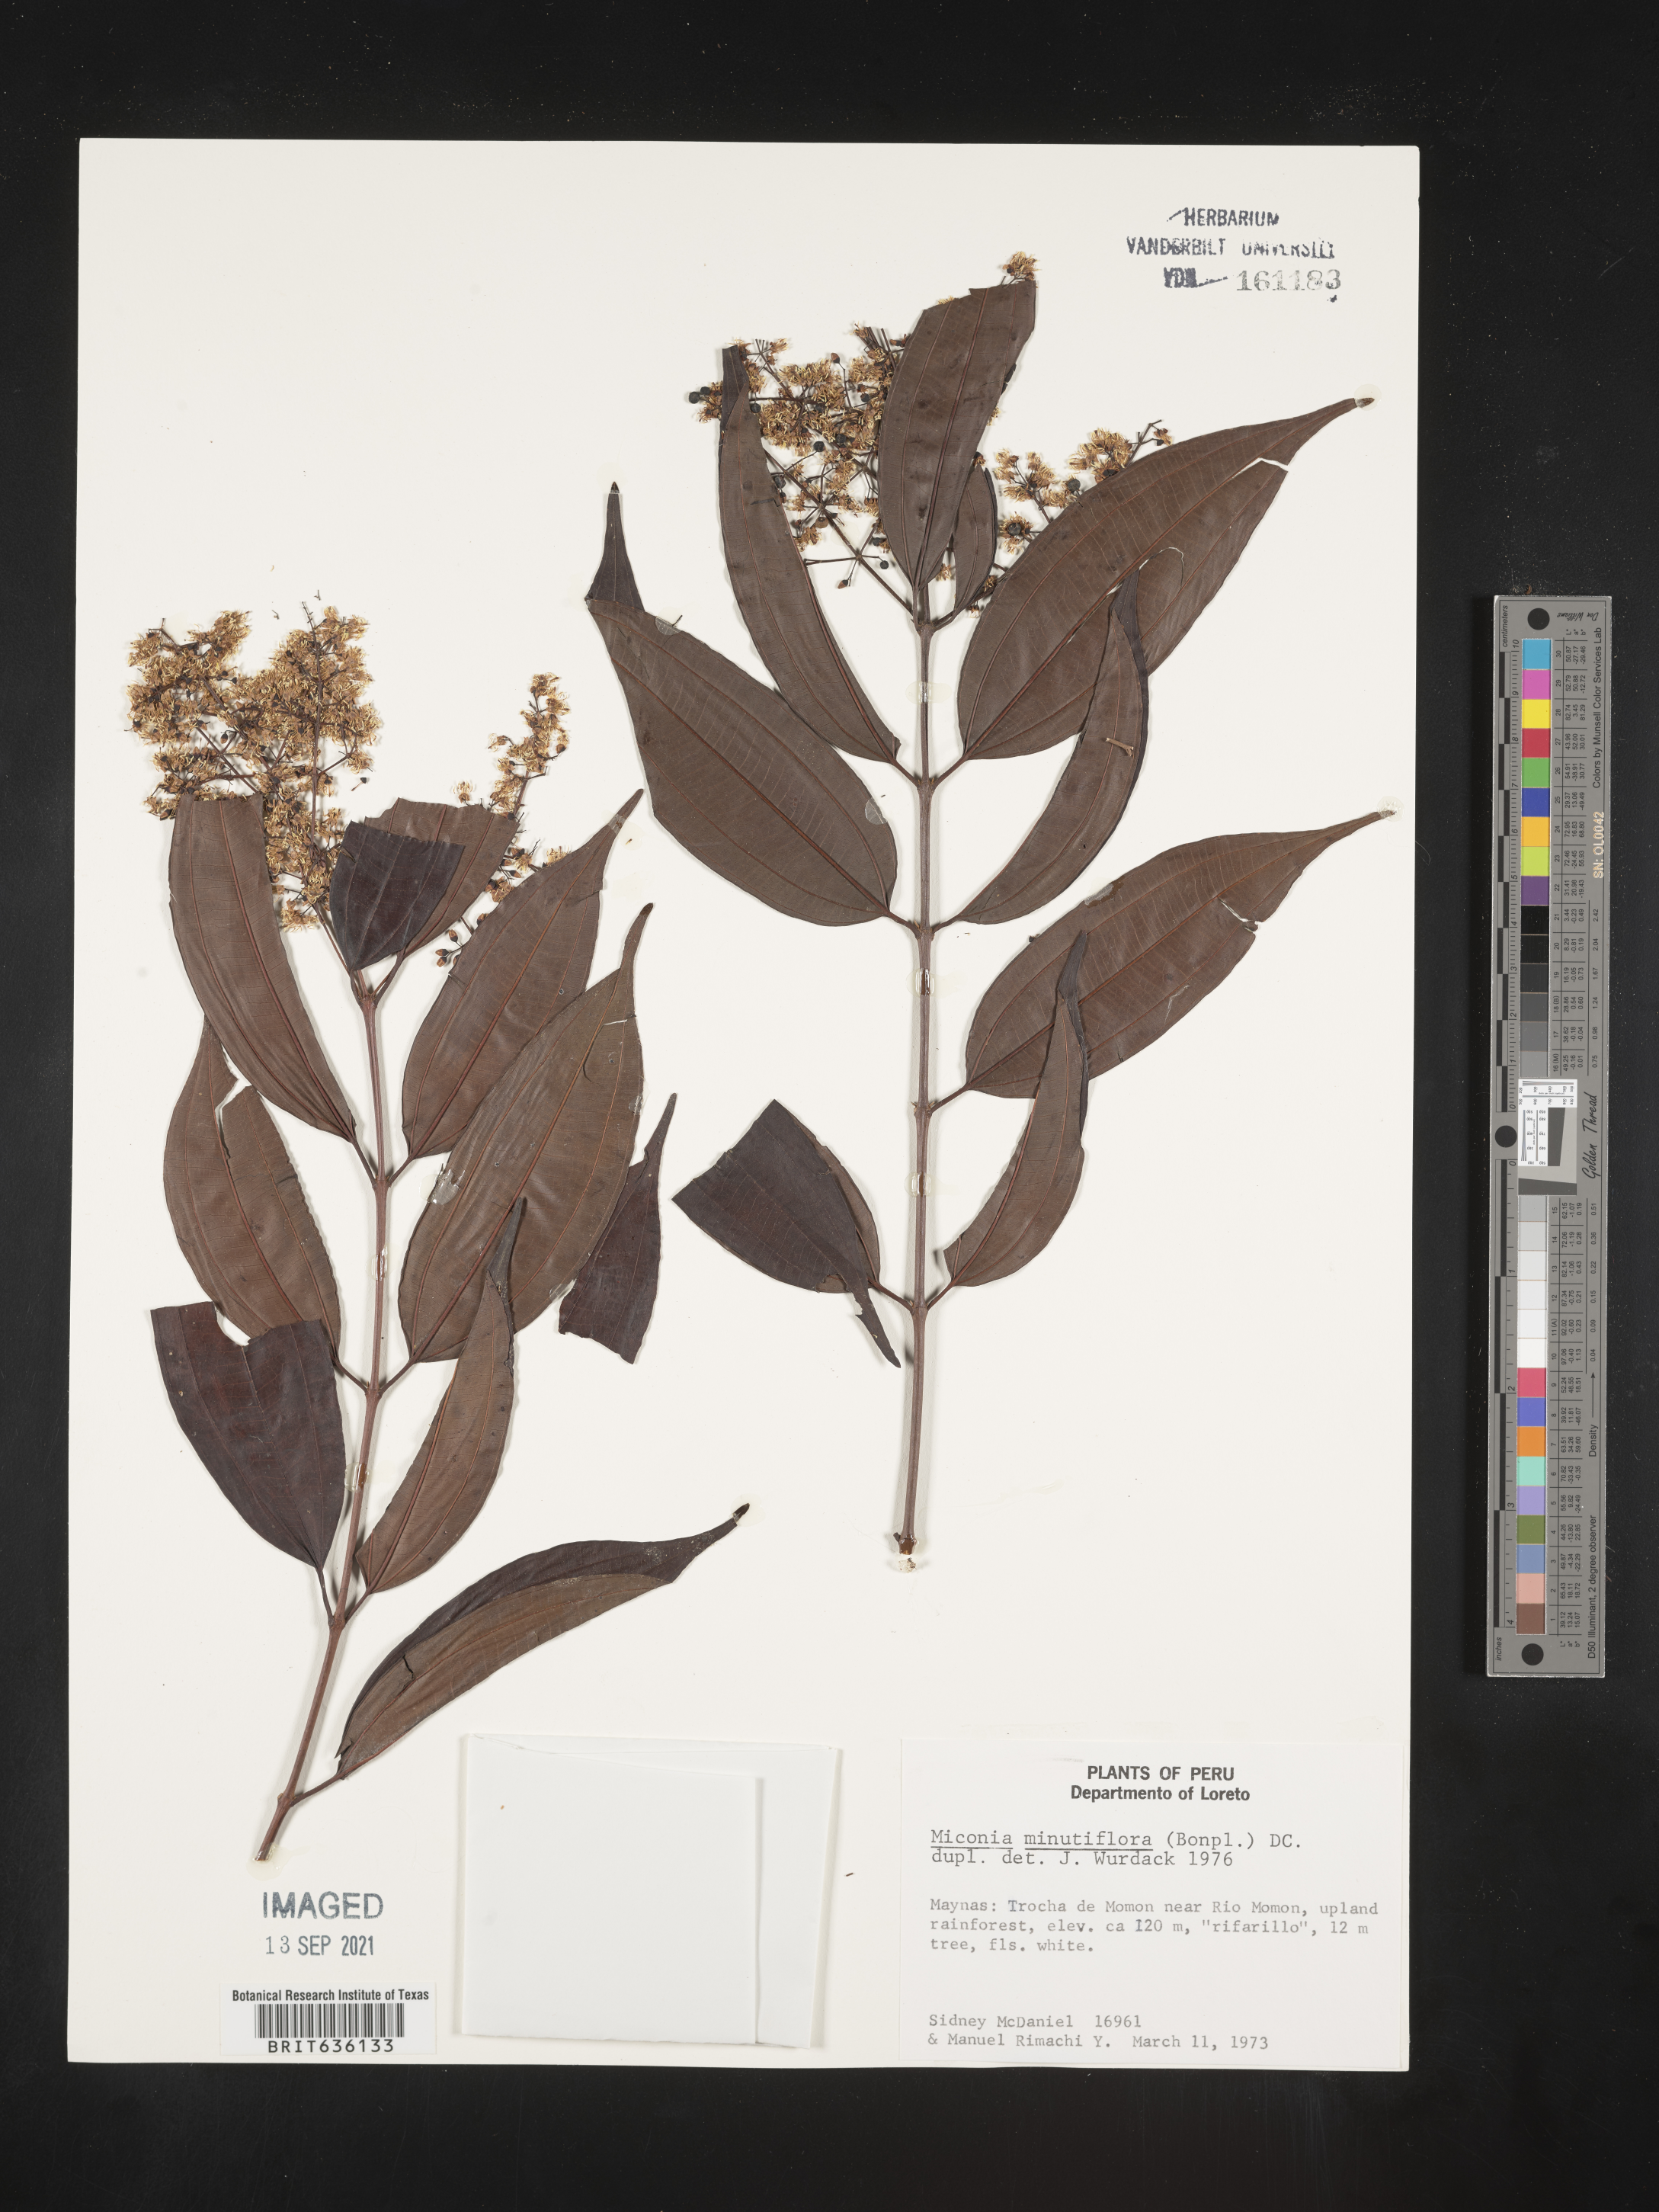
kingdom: Plantae
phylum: Tracheophyta
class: Magnoliopsida
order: Myrtales
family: Melastomataceae
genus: Miconia
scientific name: Miconia
